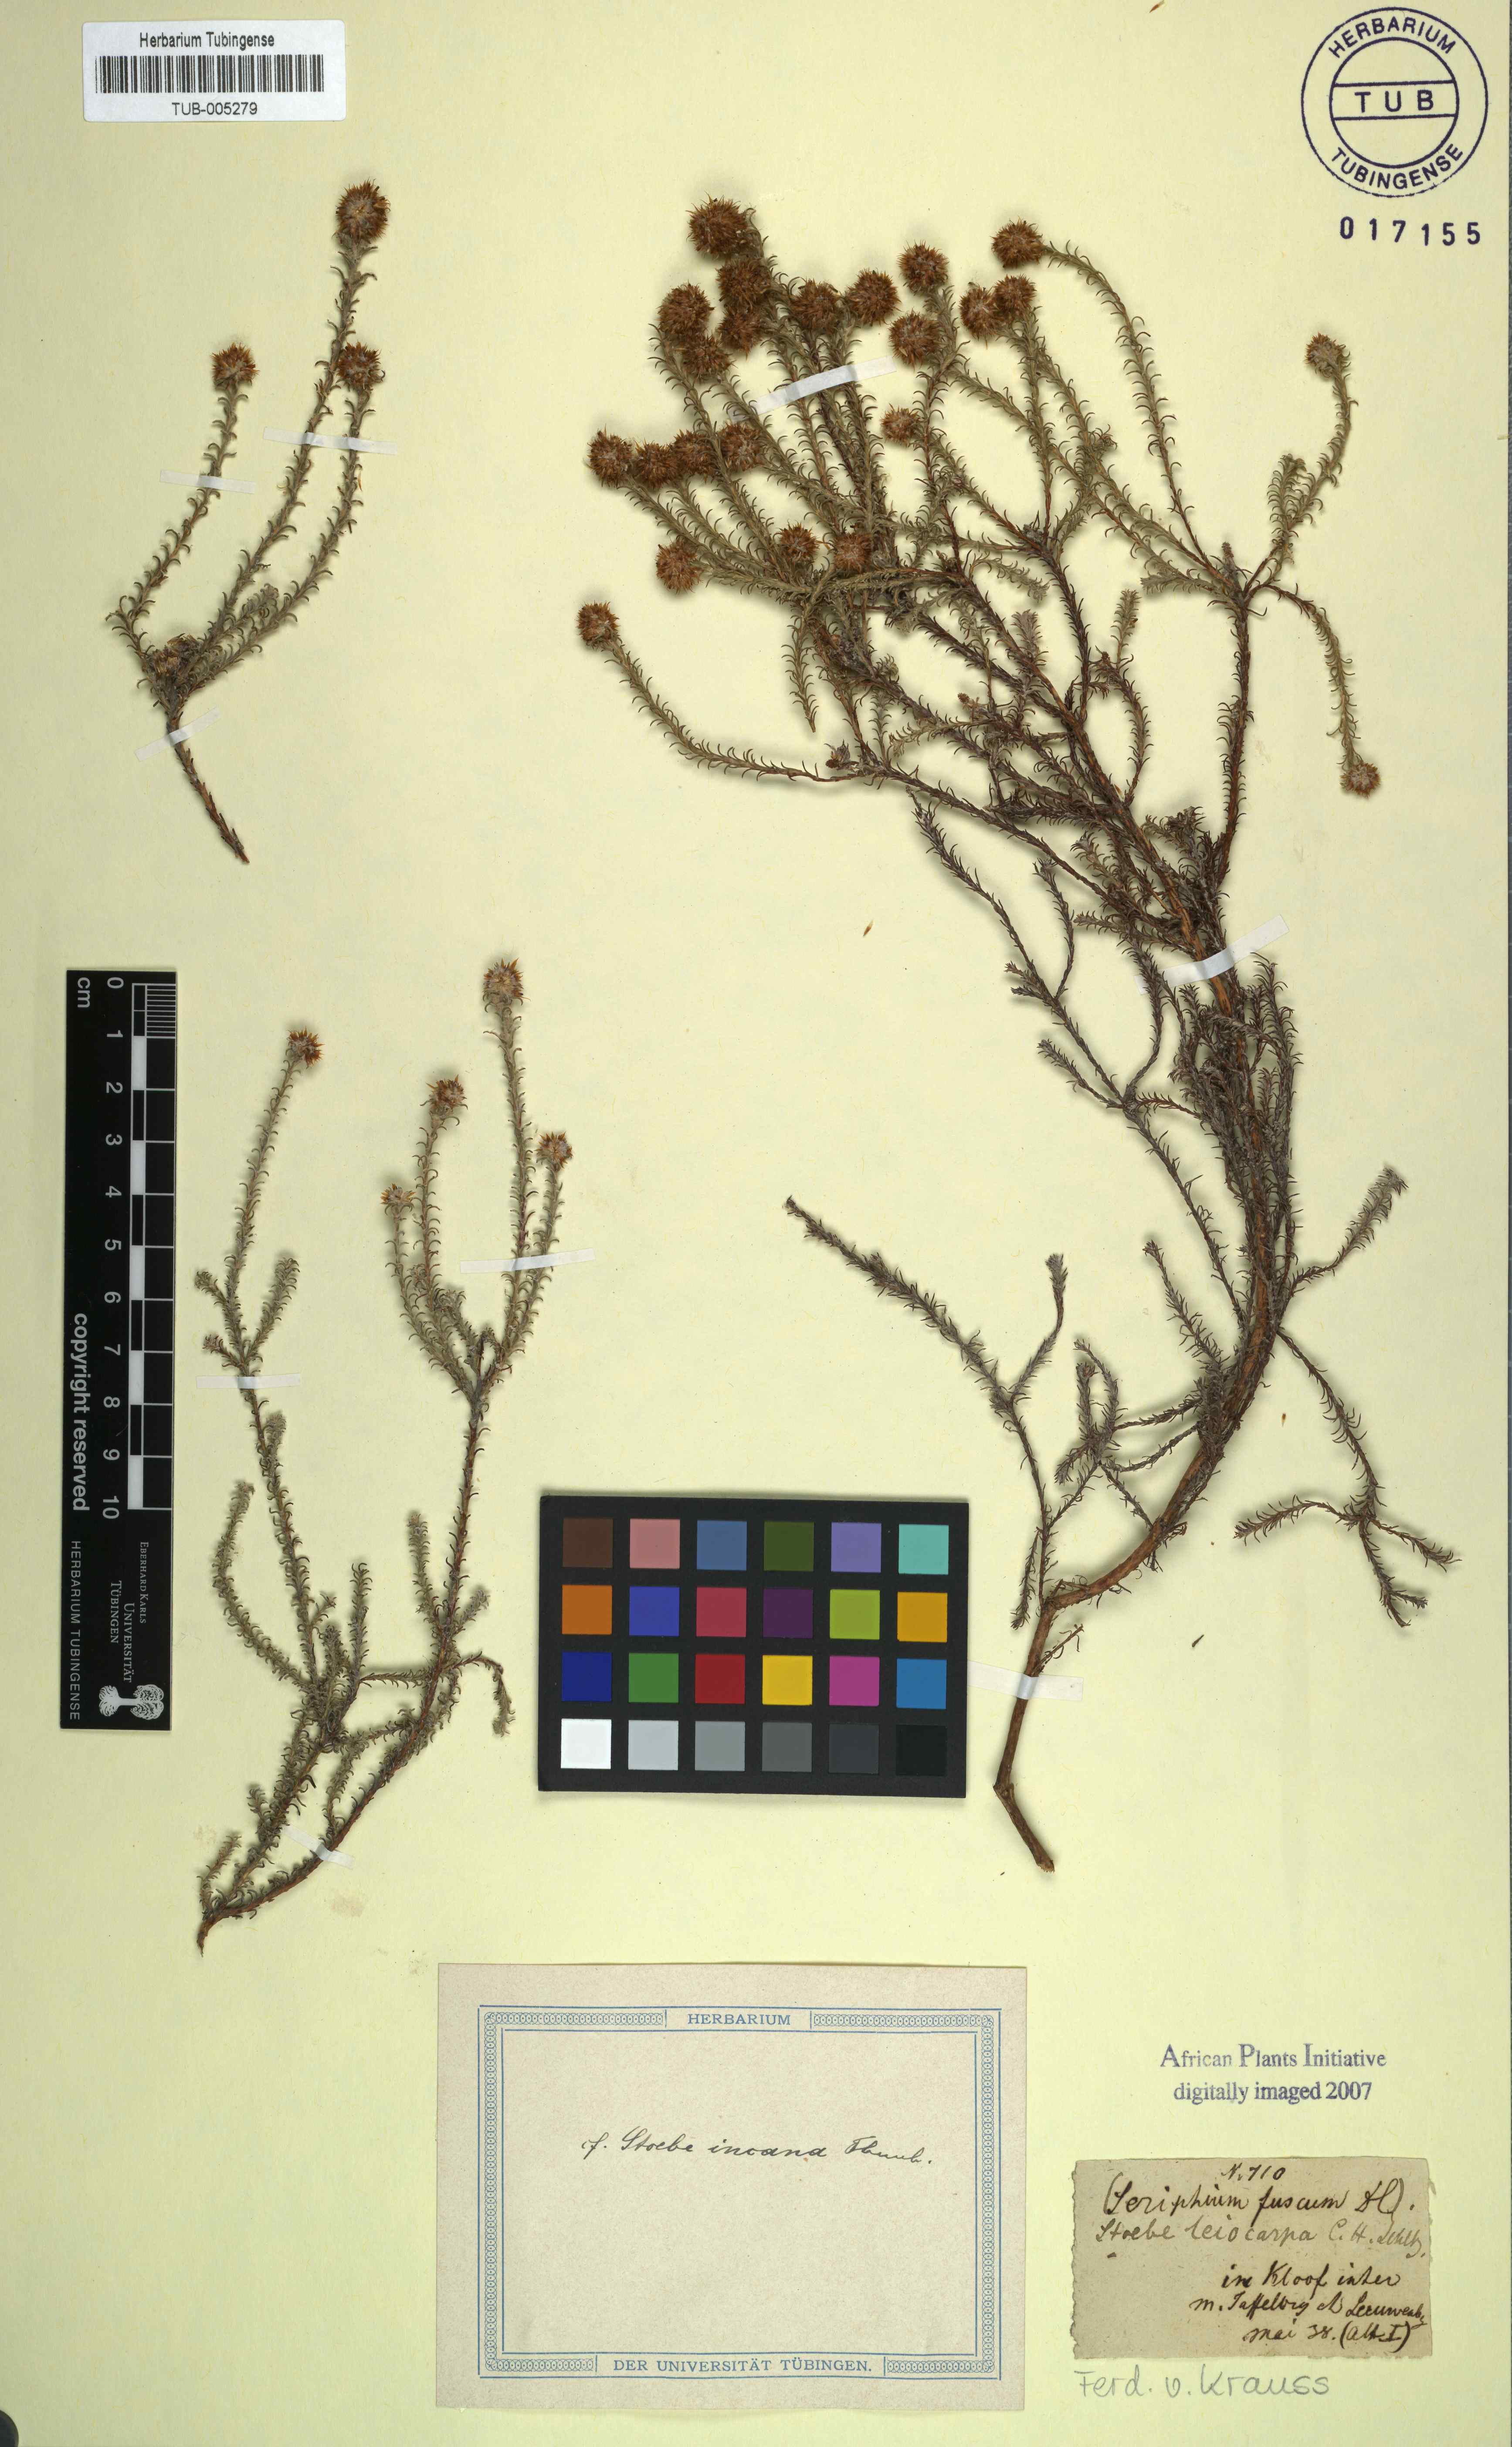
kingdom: Plantae
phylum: Tracheophyta
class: Magnoliopsida
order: Asterales
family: Asteraceae
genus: Seriphium
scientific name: Seriphium incanum
